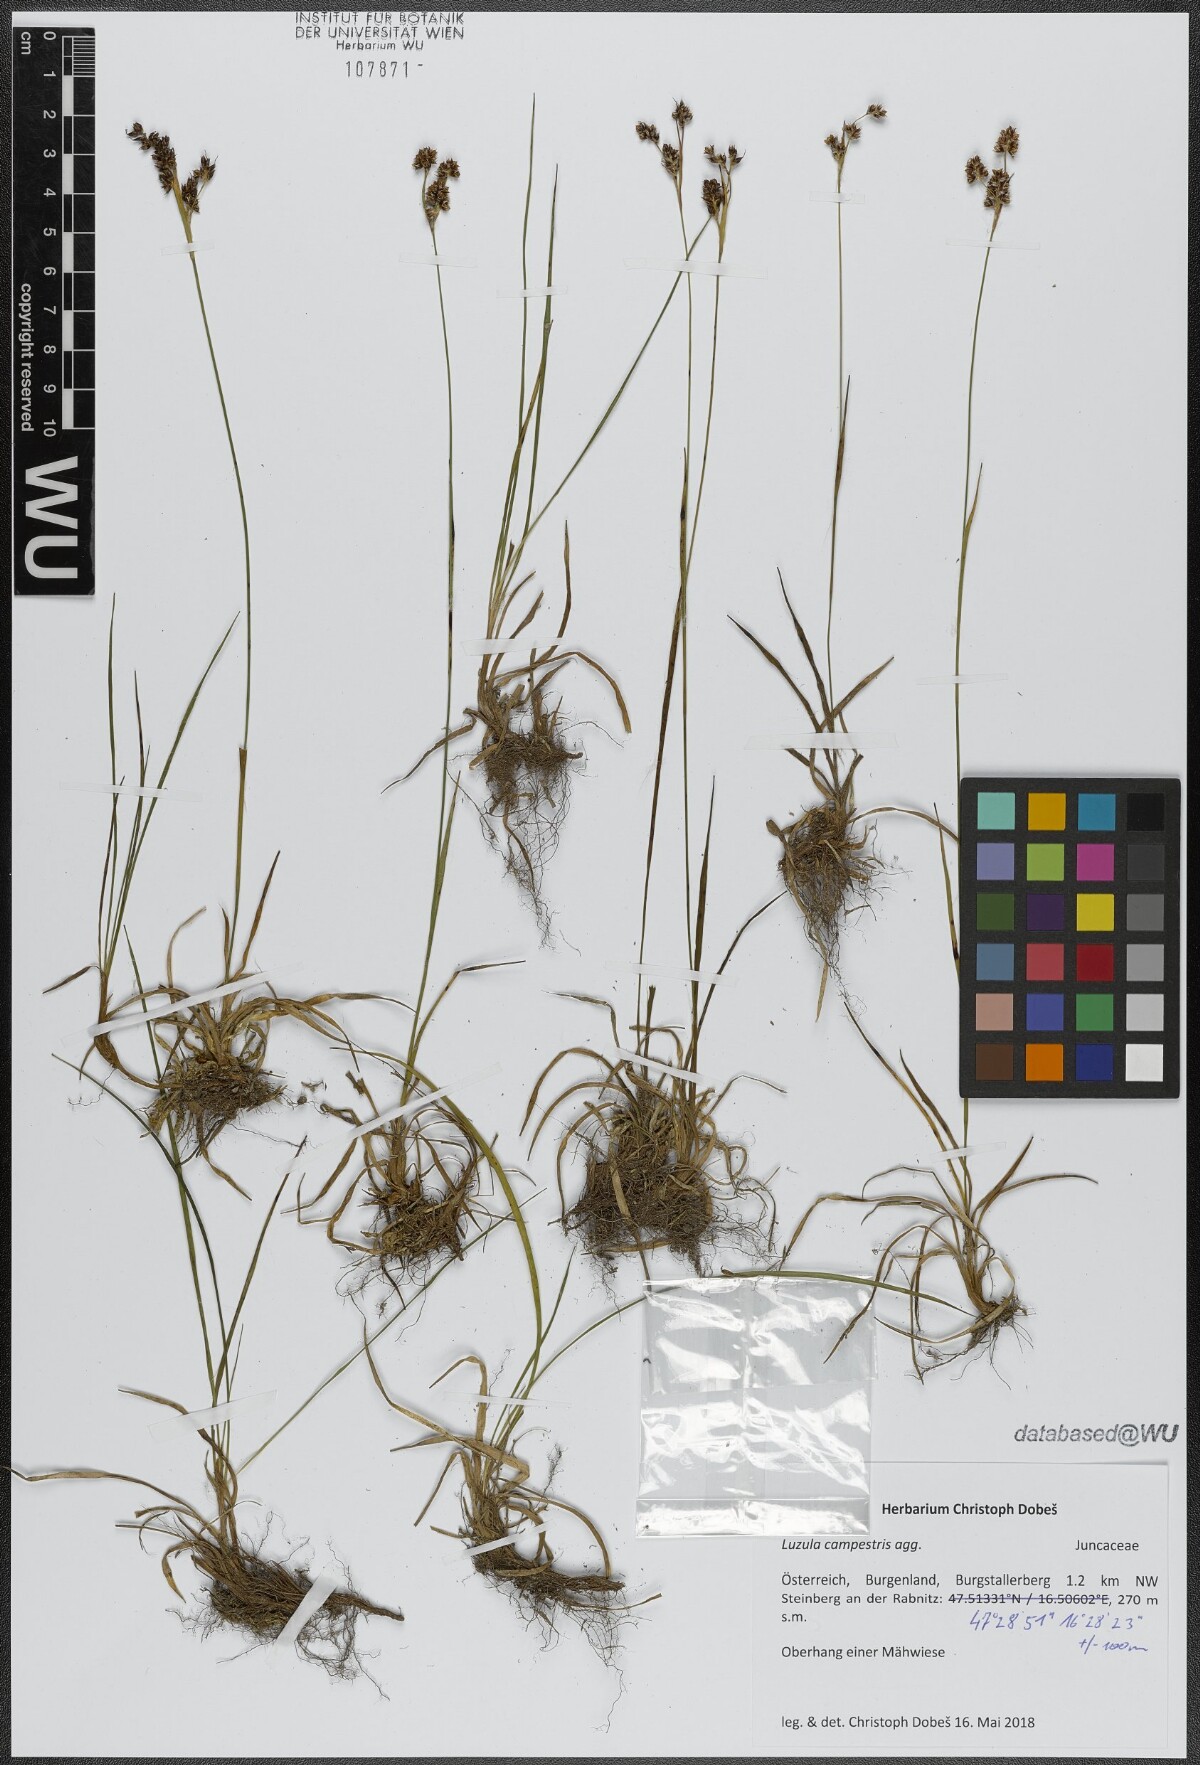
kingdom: Plantae
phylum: Tracheophyta
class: Liliopsida
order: Poales
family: Juncaceae
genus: Luzula
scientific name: Luzula campestris
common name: Field wood-rush
